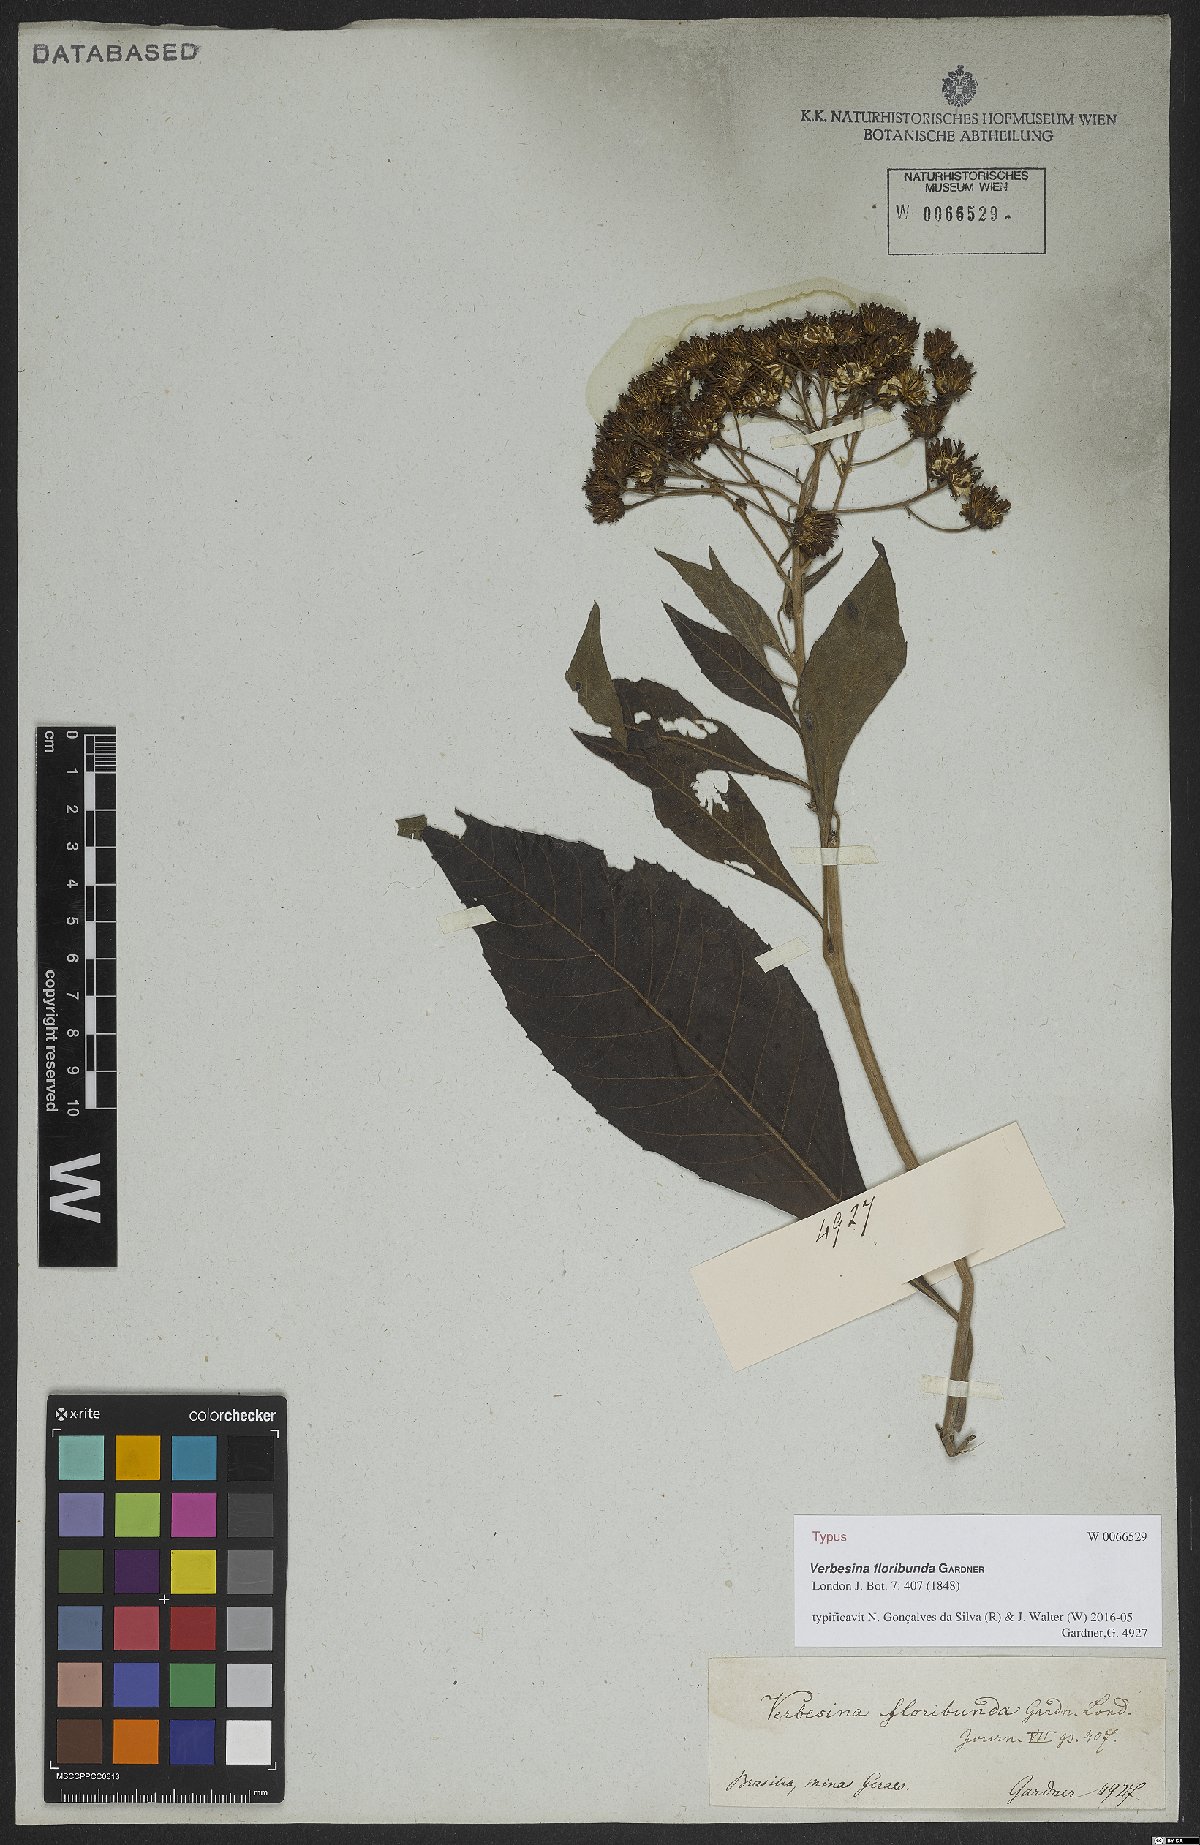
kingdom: Plantae
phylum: Tracheophyta
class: Magnoliopsida
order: Asterales
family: Asteraceae
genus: Verbesina
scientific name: Verbesina floribunda
